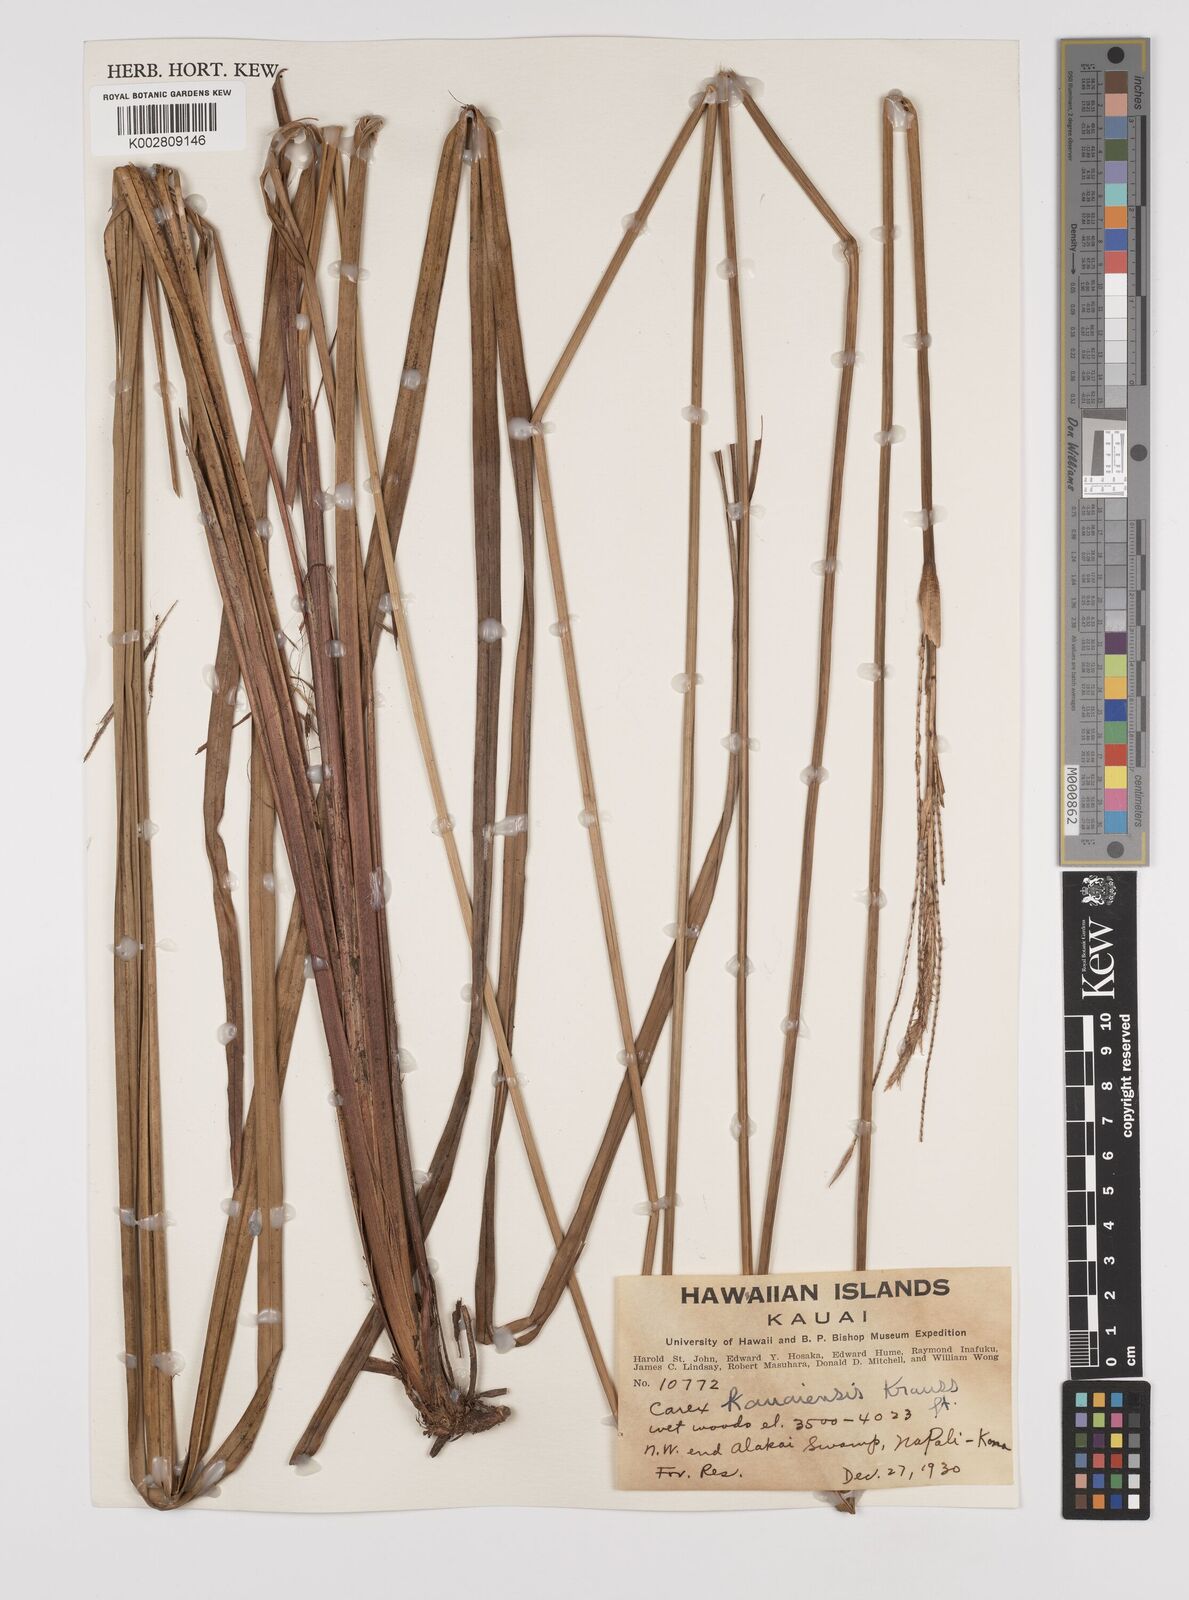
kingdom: Plantae
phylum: Tracheophyta
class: Liliopsida
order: Poales
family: Cyperaceae
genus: Carex
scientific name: Carex kauaiensis
